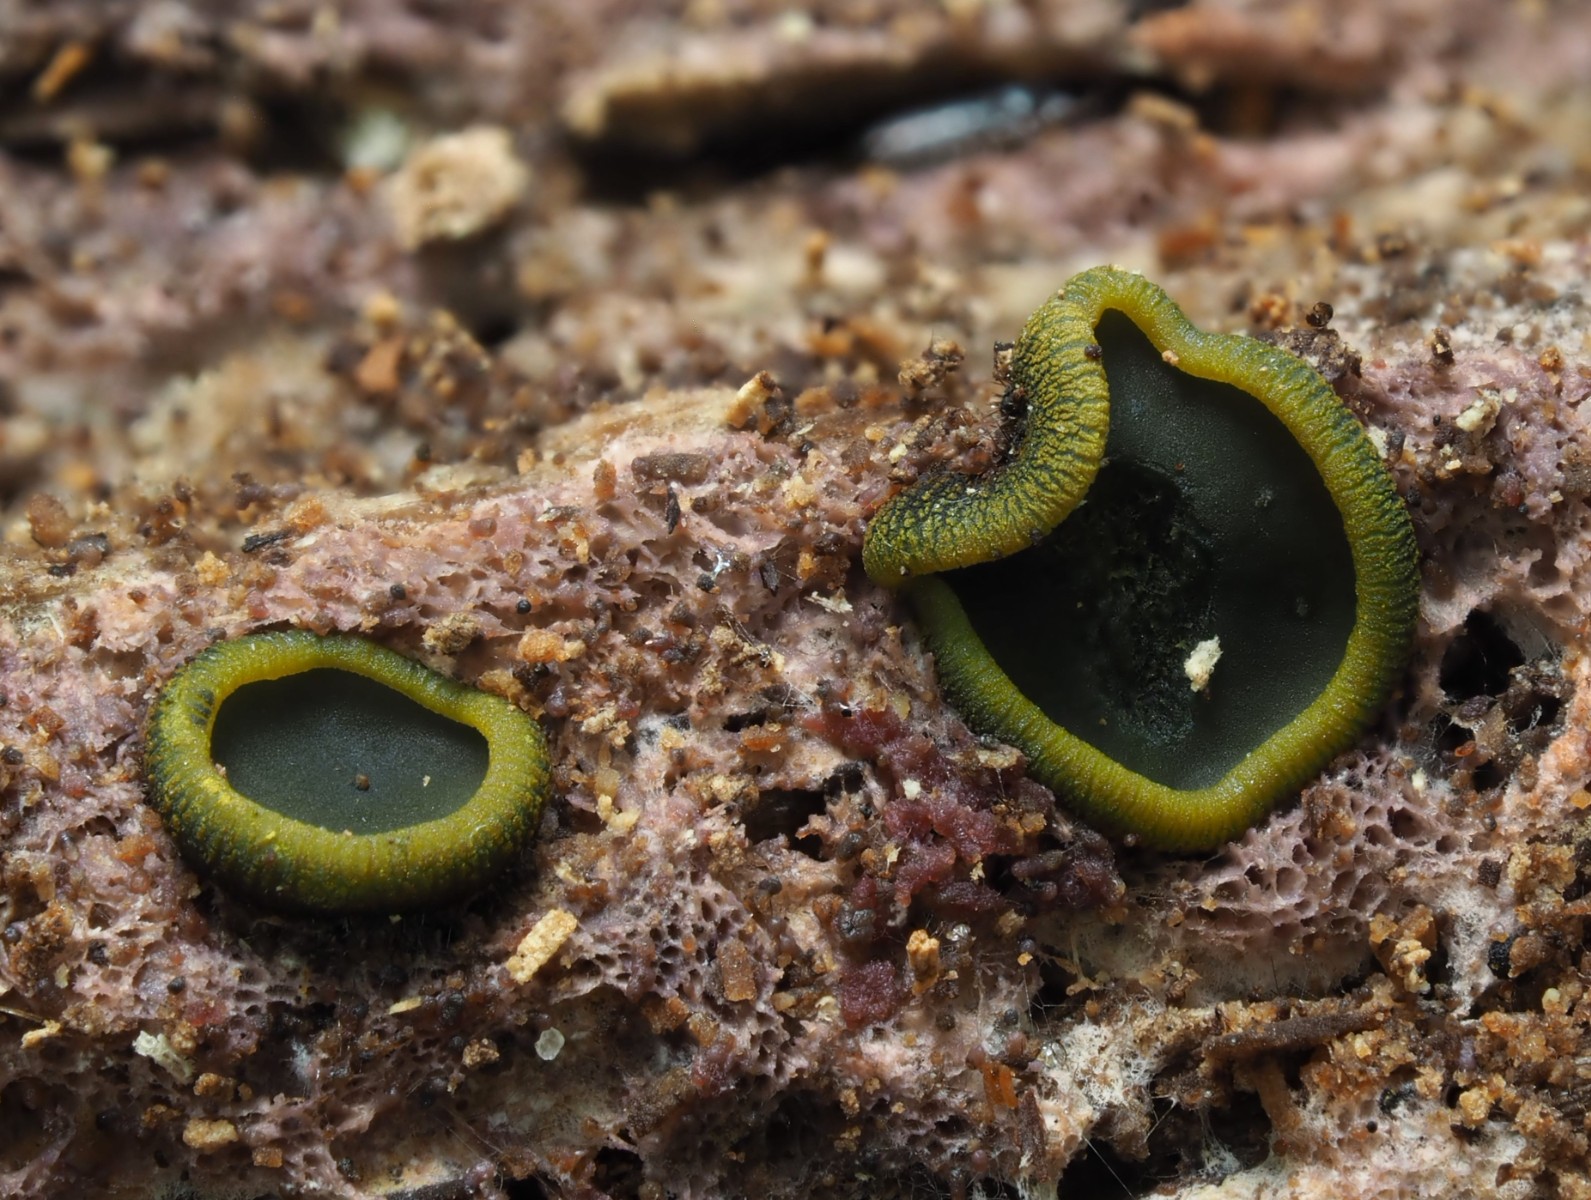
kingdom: Fungi
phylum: Ascomycota
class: Dothideomycetes
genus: Catinella
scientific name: Catinella olivacea
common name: olivenskive
